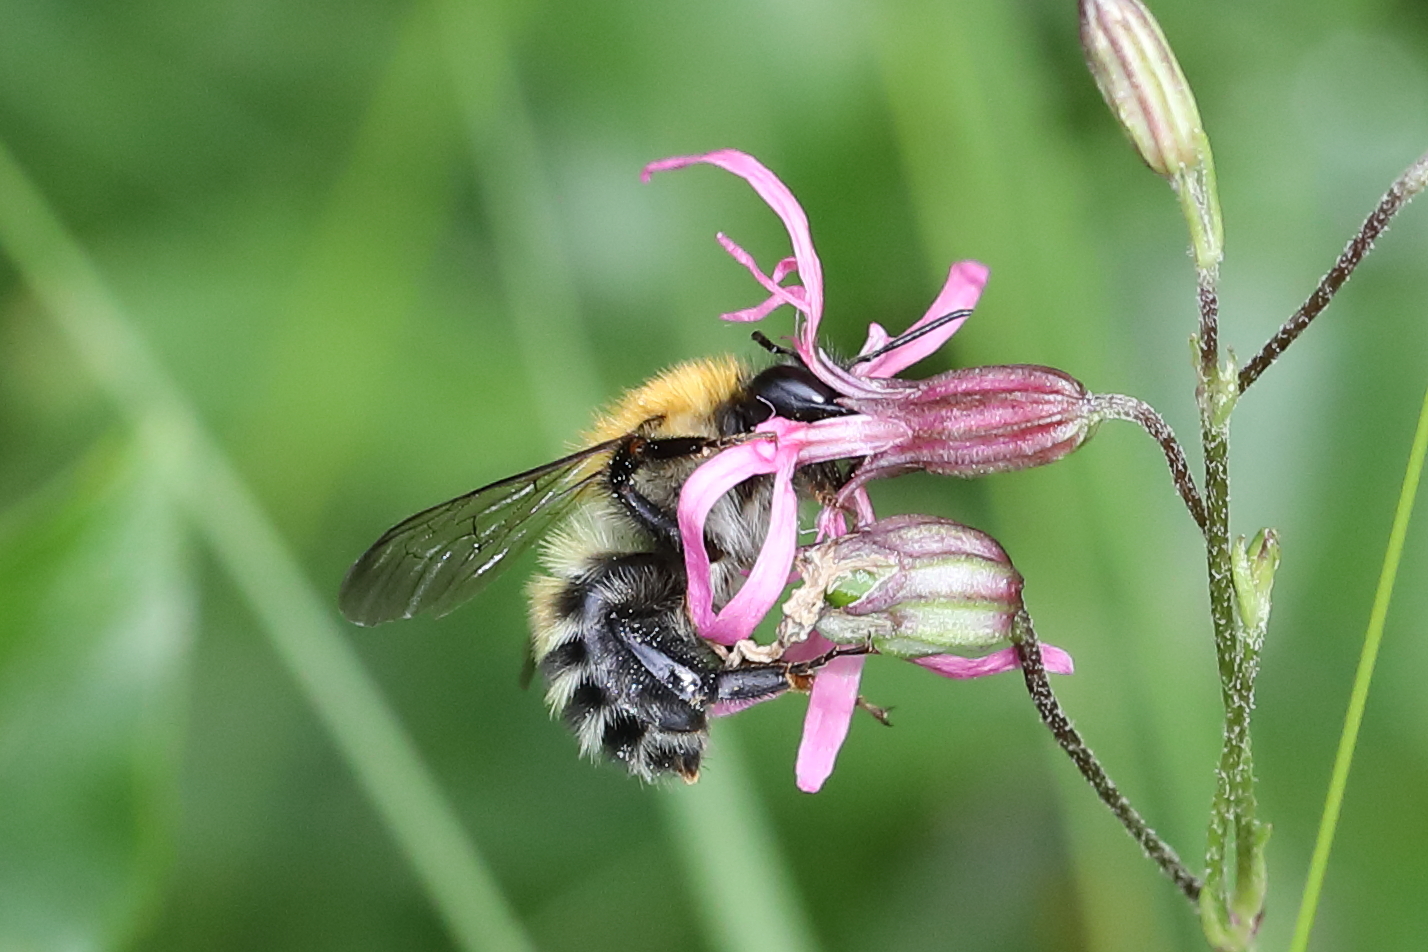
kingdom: Animalia
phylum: Arthropoda
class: Insecta
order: Hymenoptera
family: Apidae
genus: Bombus
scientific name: Bombus schrencki
